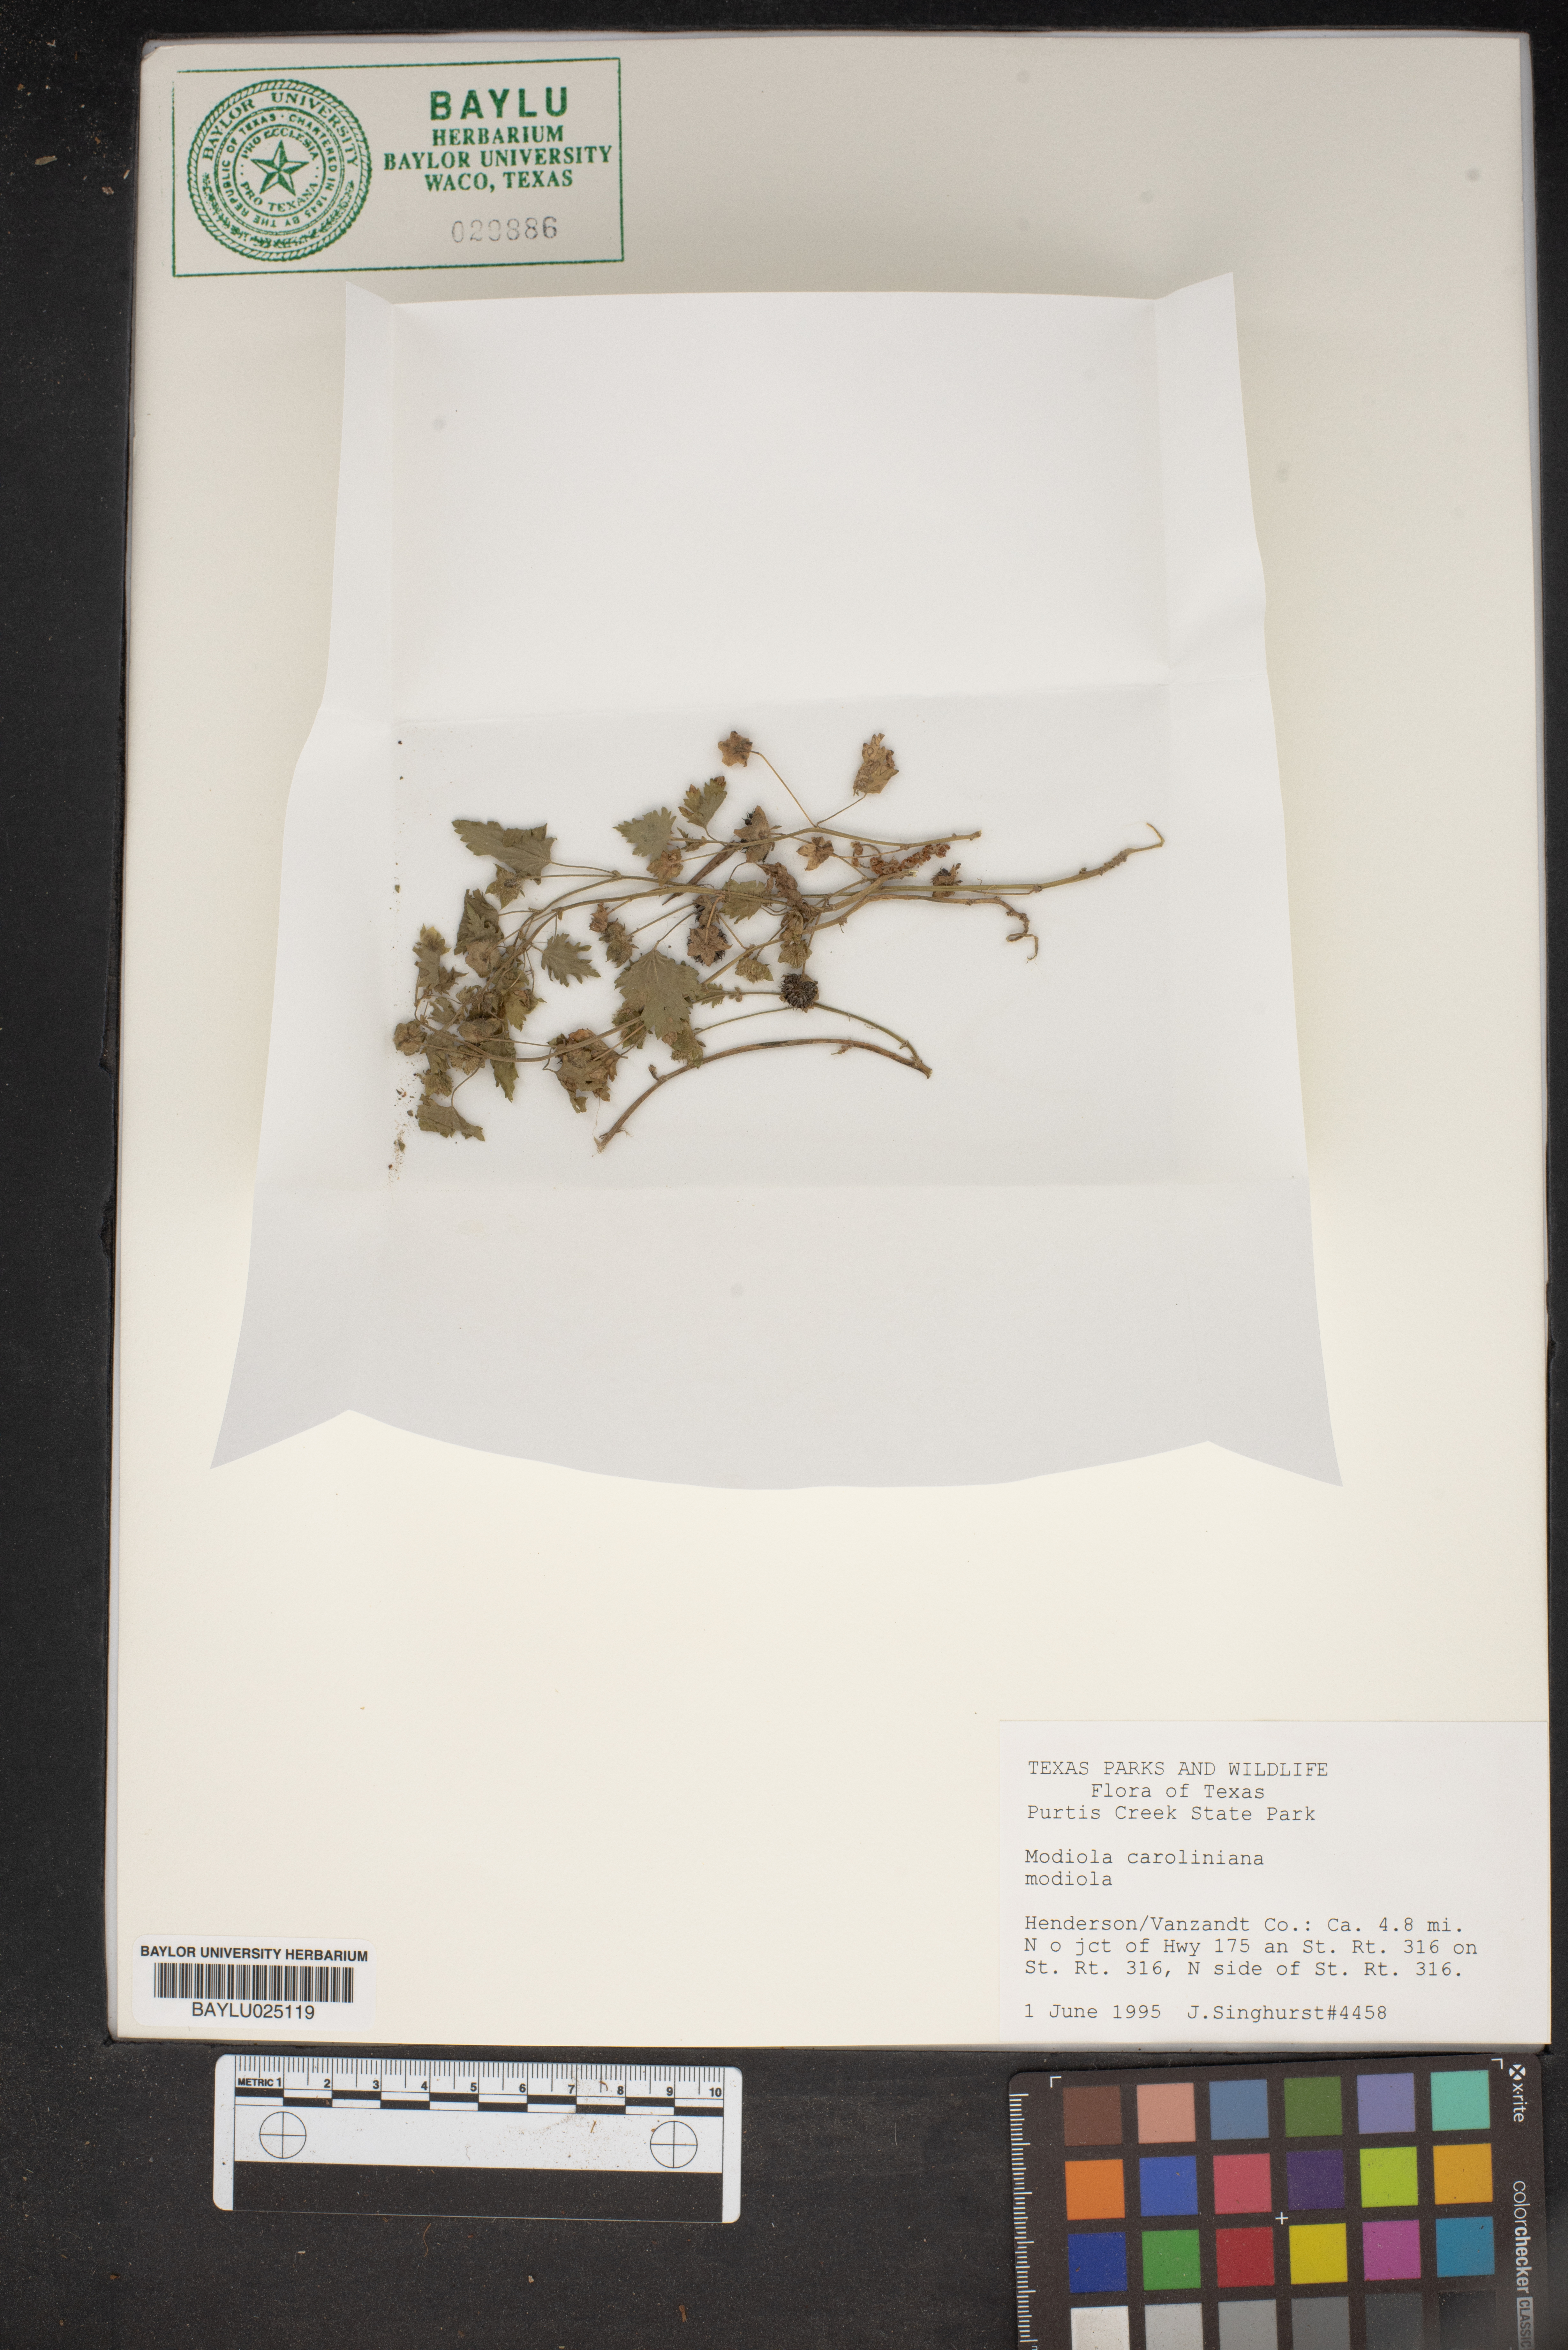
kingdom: Plantae
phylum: Tracheophyta
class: Magnoliopsida
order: Malvales
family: Malvaceae
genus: Modiola
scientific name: Modiola caroliniana
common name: Carolina bristlemallow
